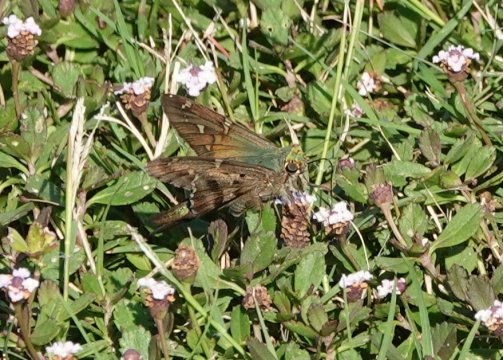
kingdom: Animalia
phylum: Arthropoda
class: Insecta
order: Lepidoptera
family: Hesperiidae
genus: Urbanus
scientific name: Urbanus proteus
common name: Long-tailed Skipper
